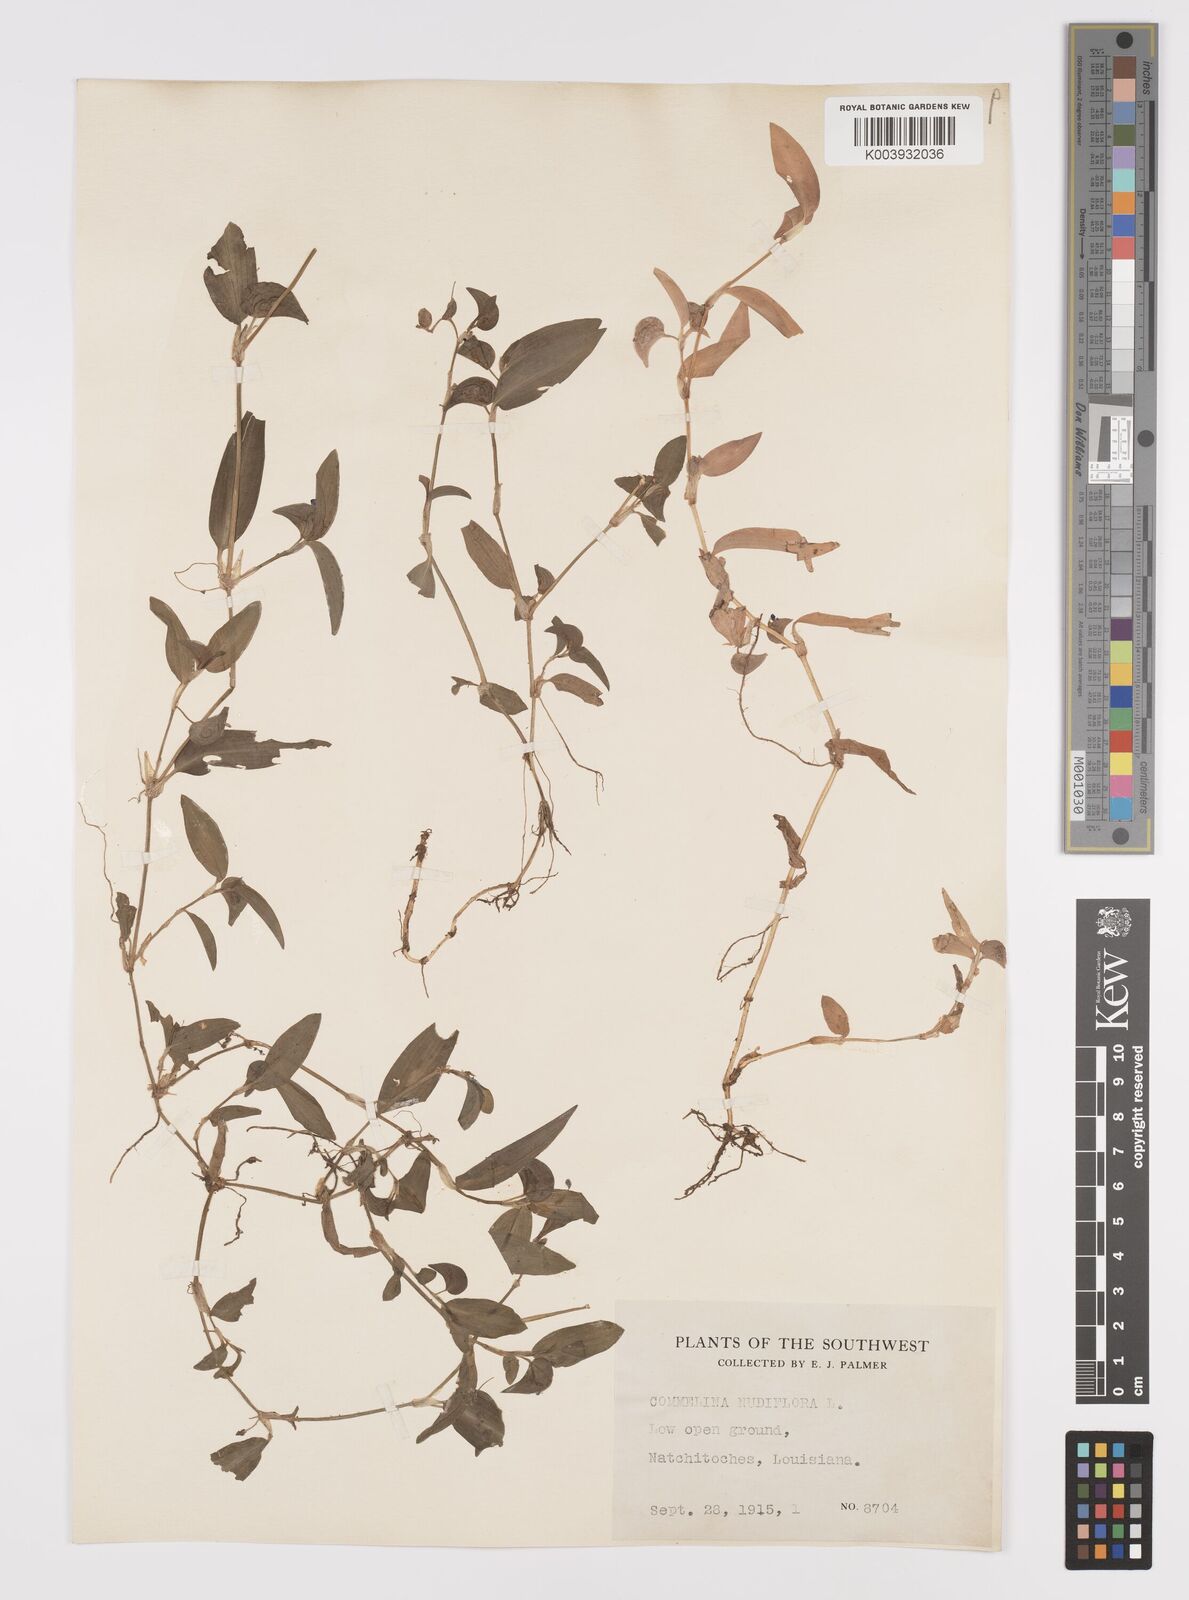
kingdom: Plantae
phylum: Tracheophyta
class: Liliopsida
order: Commelinales
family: Commelinaceae
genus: Murdannia
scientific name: Murdannia nudiflora
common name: Nakedstem dewflower
